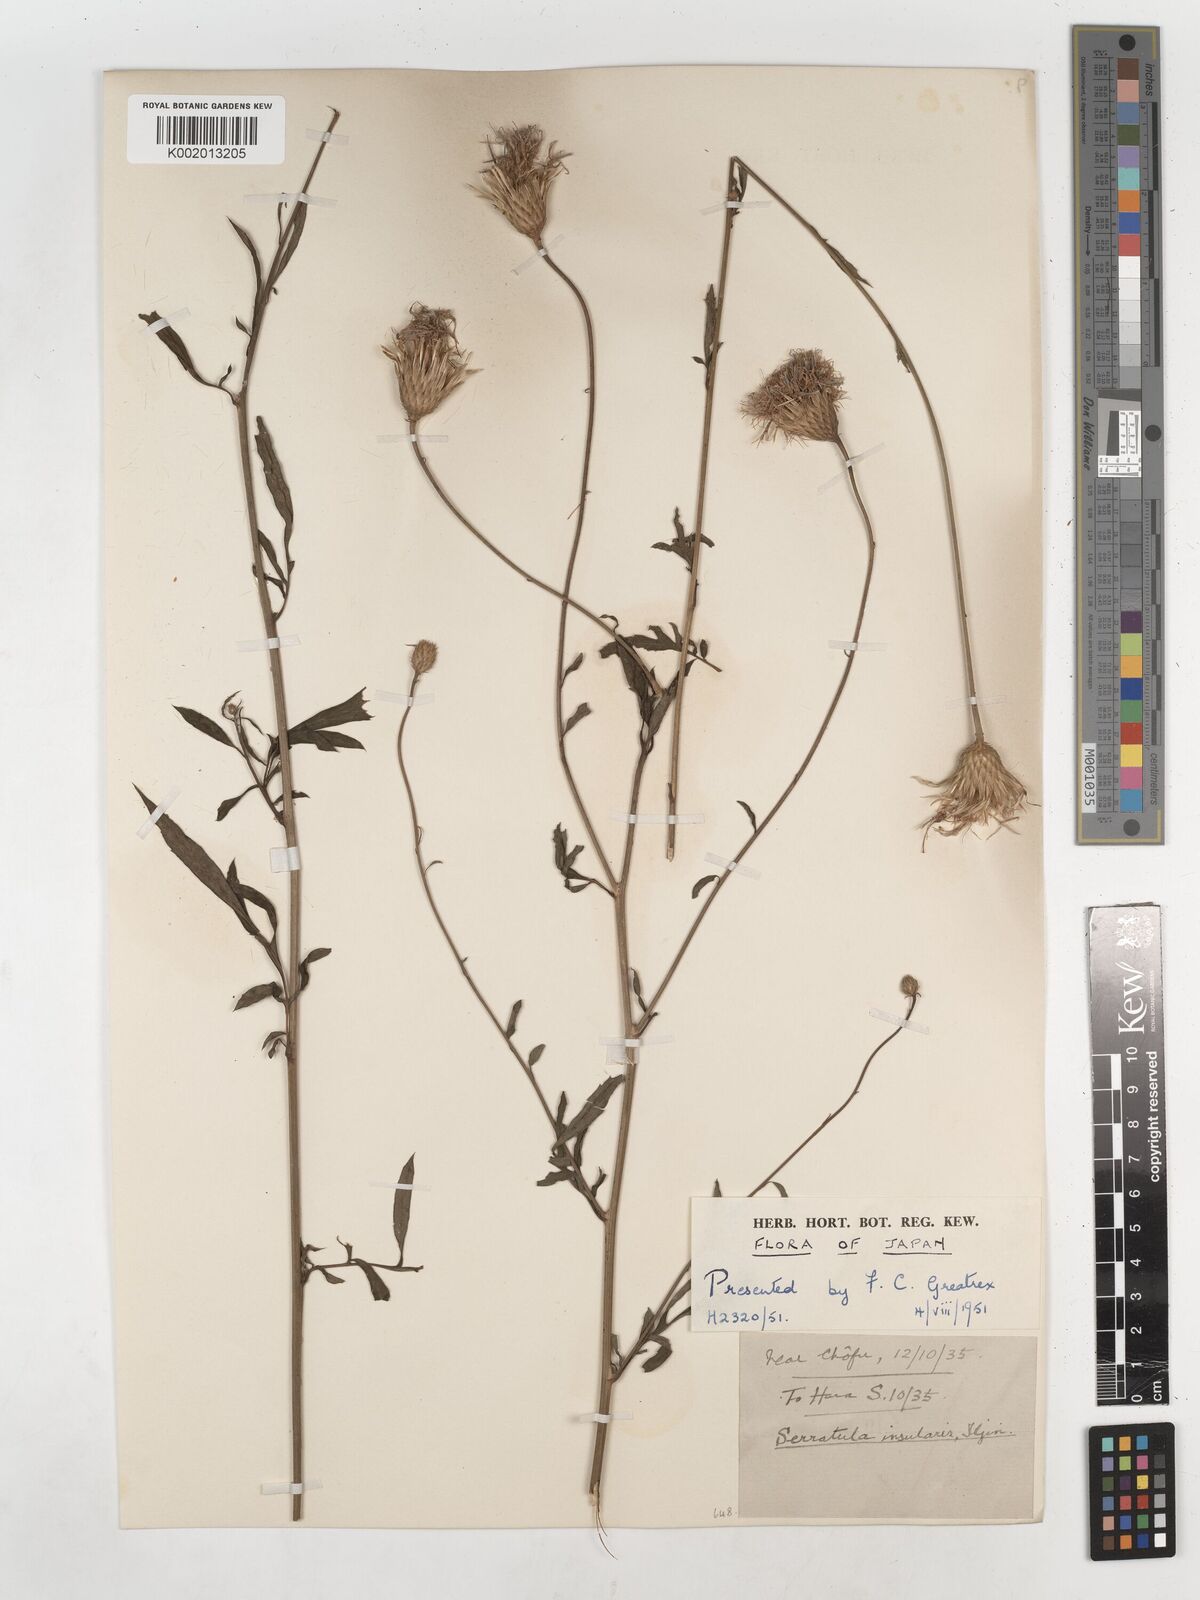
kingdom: Plantae
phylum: Tracheophyta
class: Magnoliopsida
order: Asterales
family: Asteraceae
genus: Serratula
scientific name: Serratula coronata
